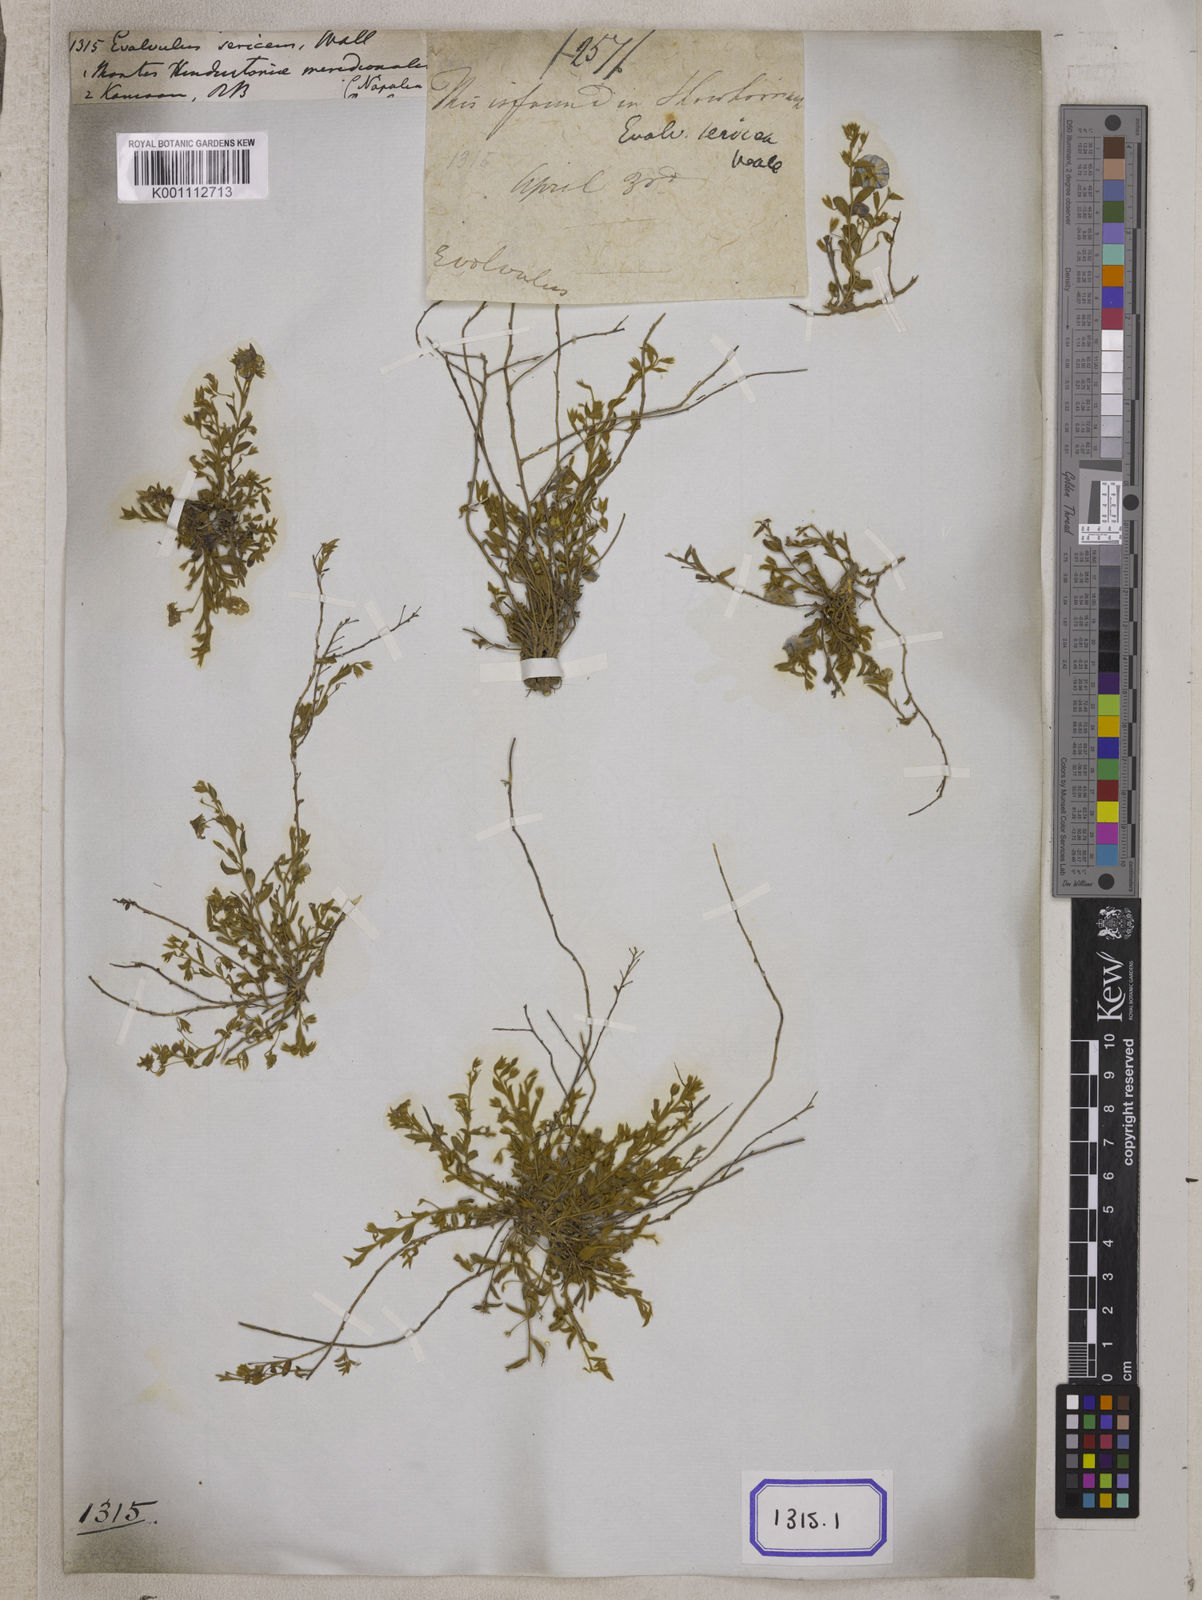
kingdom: Plantae
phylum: Tracheophyta
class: Magnoliopsida
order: Solanales
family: Convolvulaceae
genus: Evolvulus
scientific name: Evolvulus
